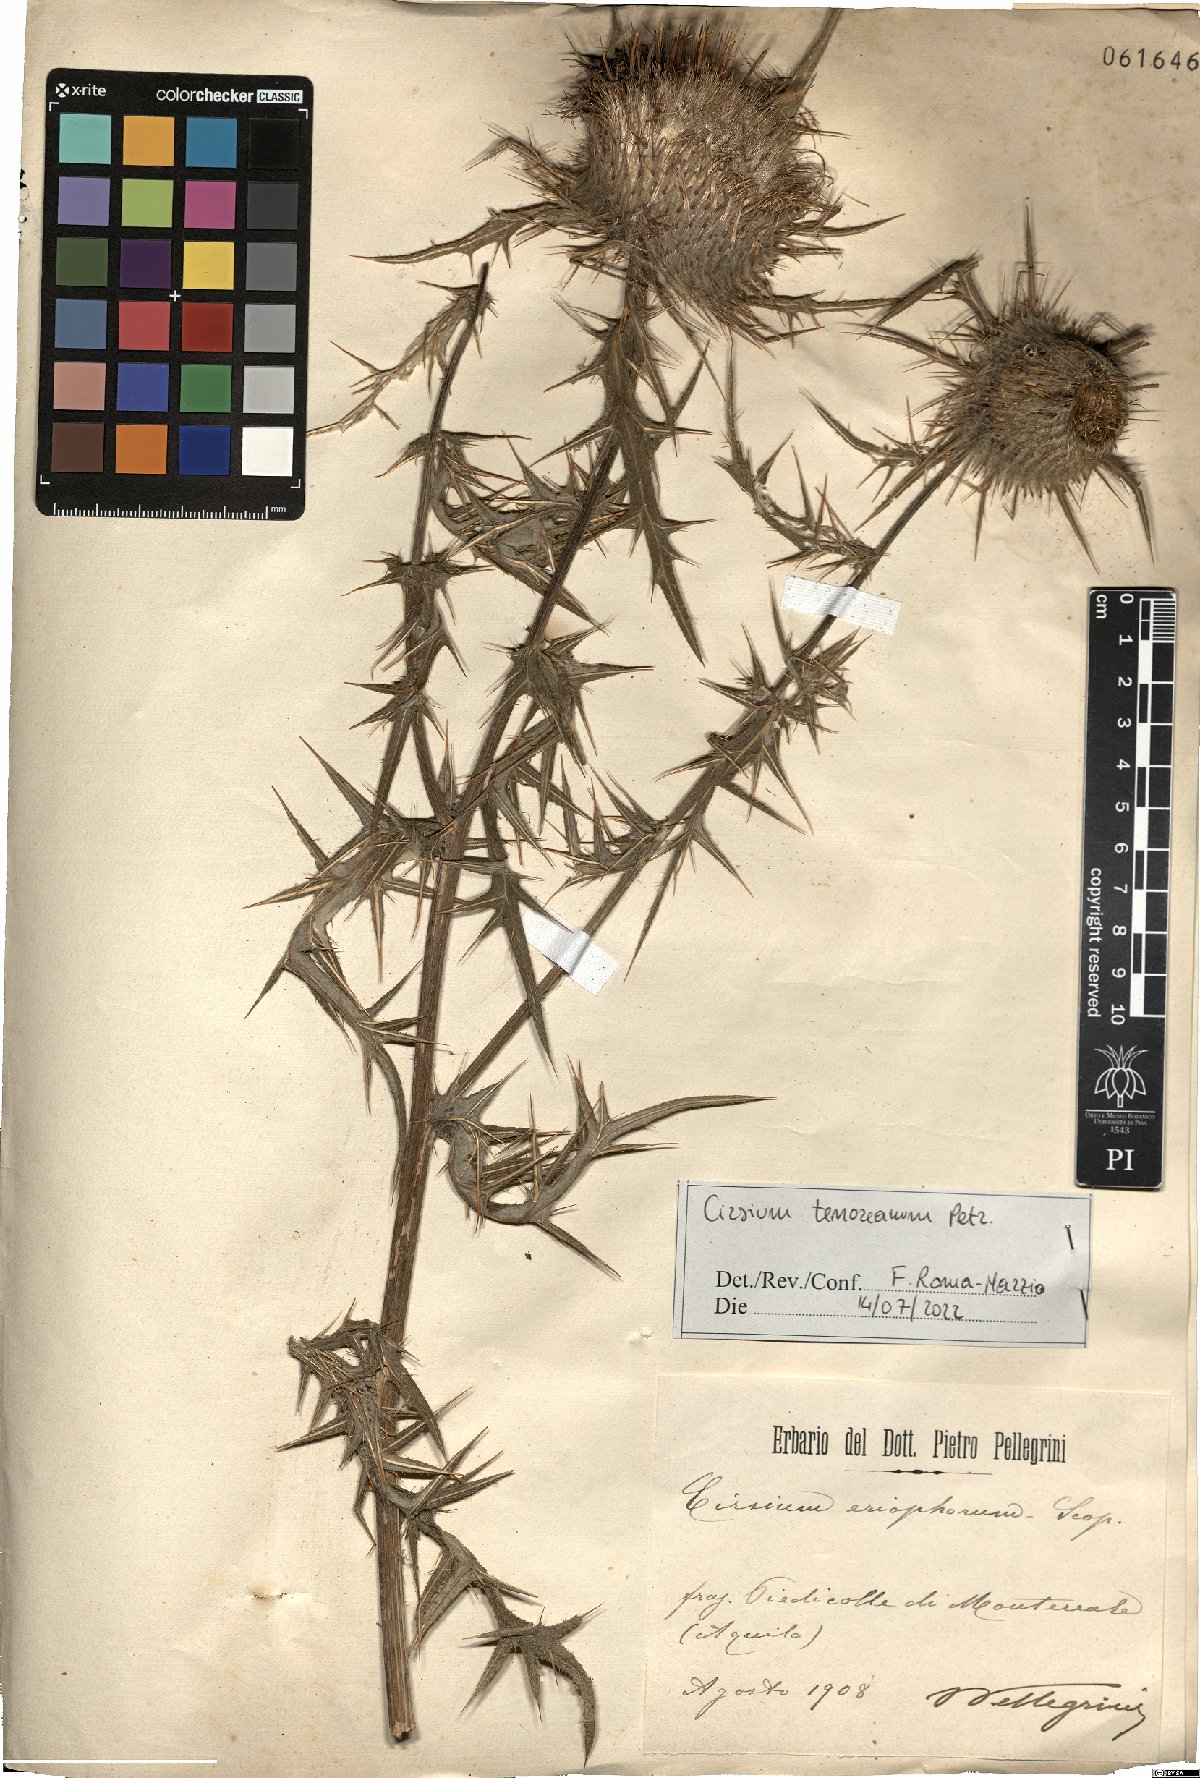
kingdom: Plantae
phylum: Tracheophyta
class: Magnoliopsida
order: Asterales
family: Asteraceae
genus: Lophiolepis
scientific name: Lophiolepis tenoreana
